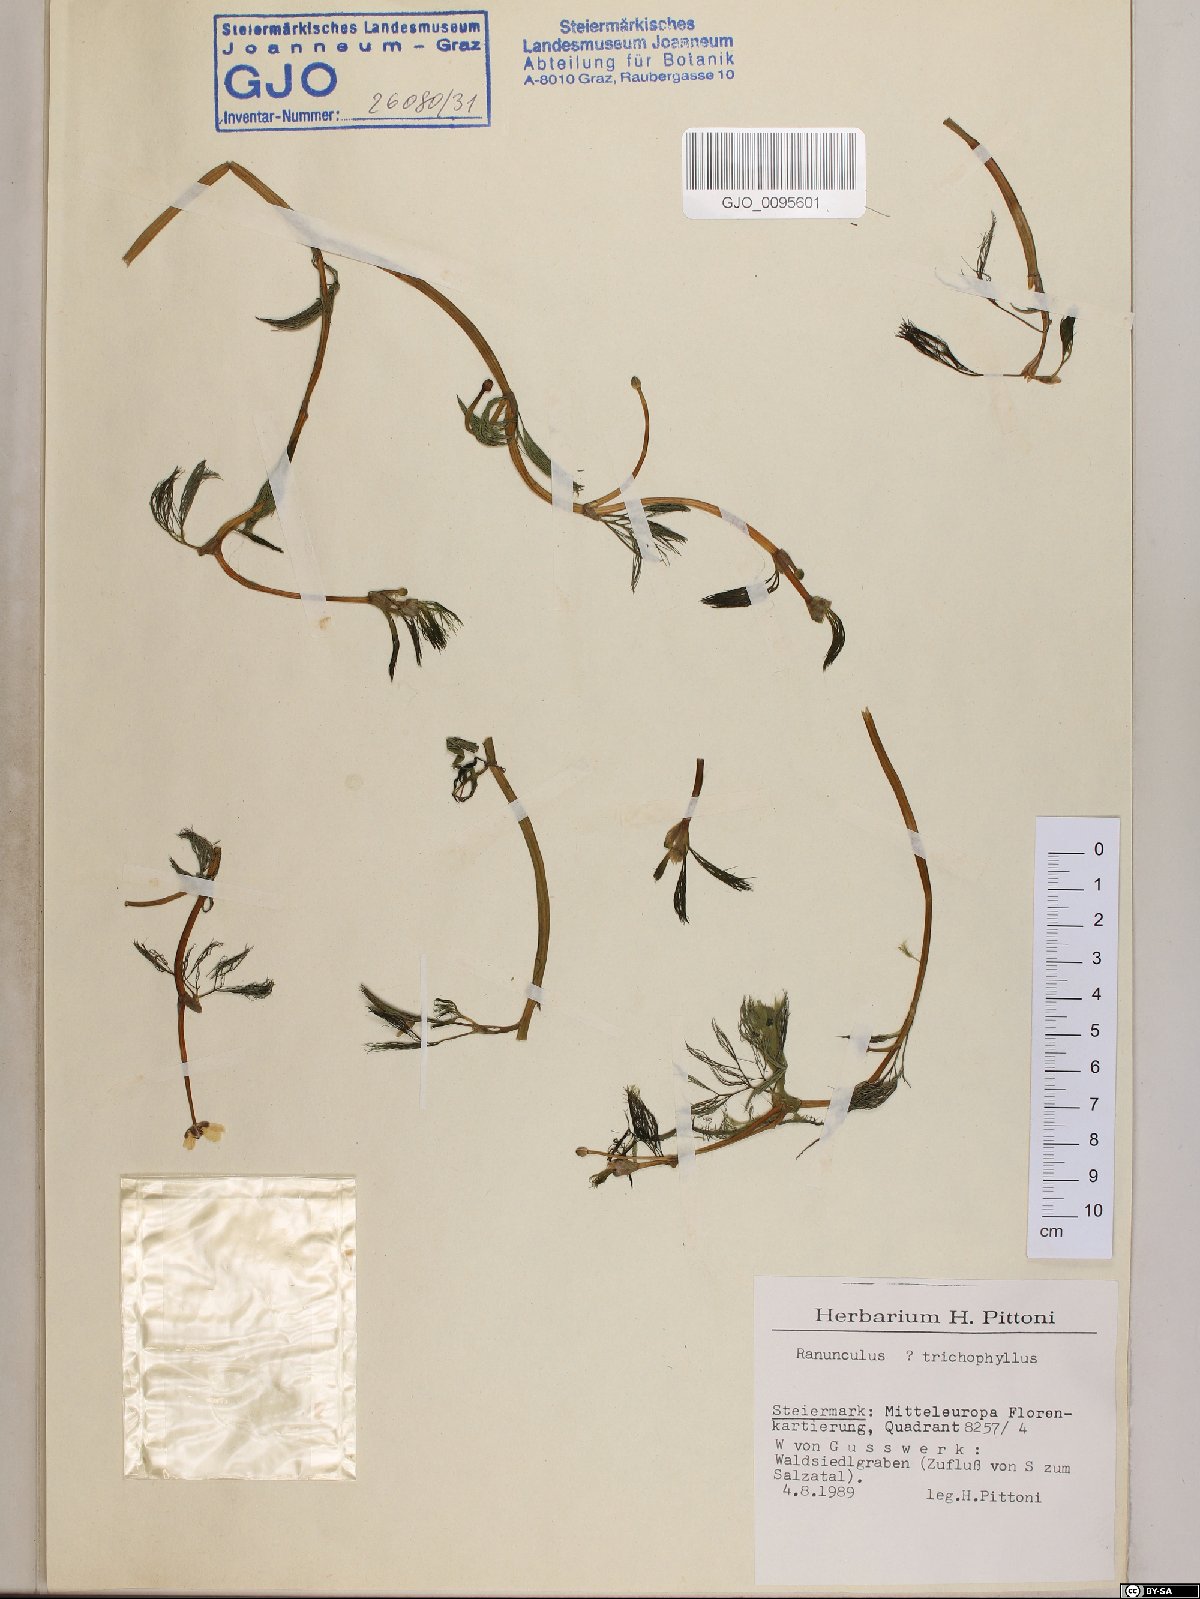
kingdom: Plantae
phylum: Tracheophyta
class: Magnoliopsida
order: Ranunculales
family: Ranunculaceae
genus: Ranunculus
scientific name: Ranunculus trichophyllus
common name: Thread-leaved water-crowfoot
